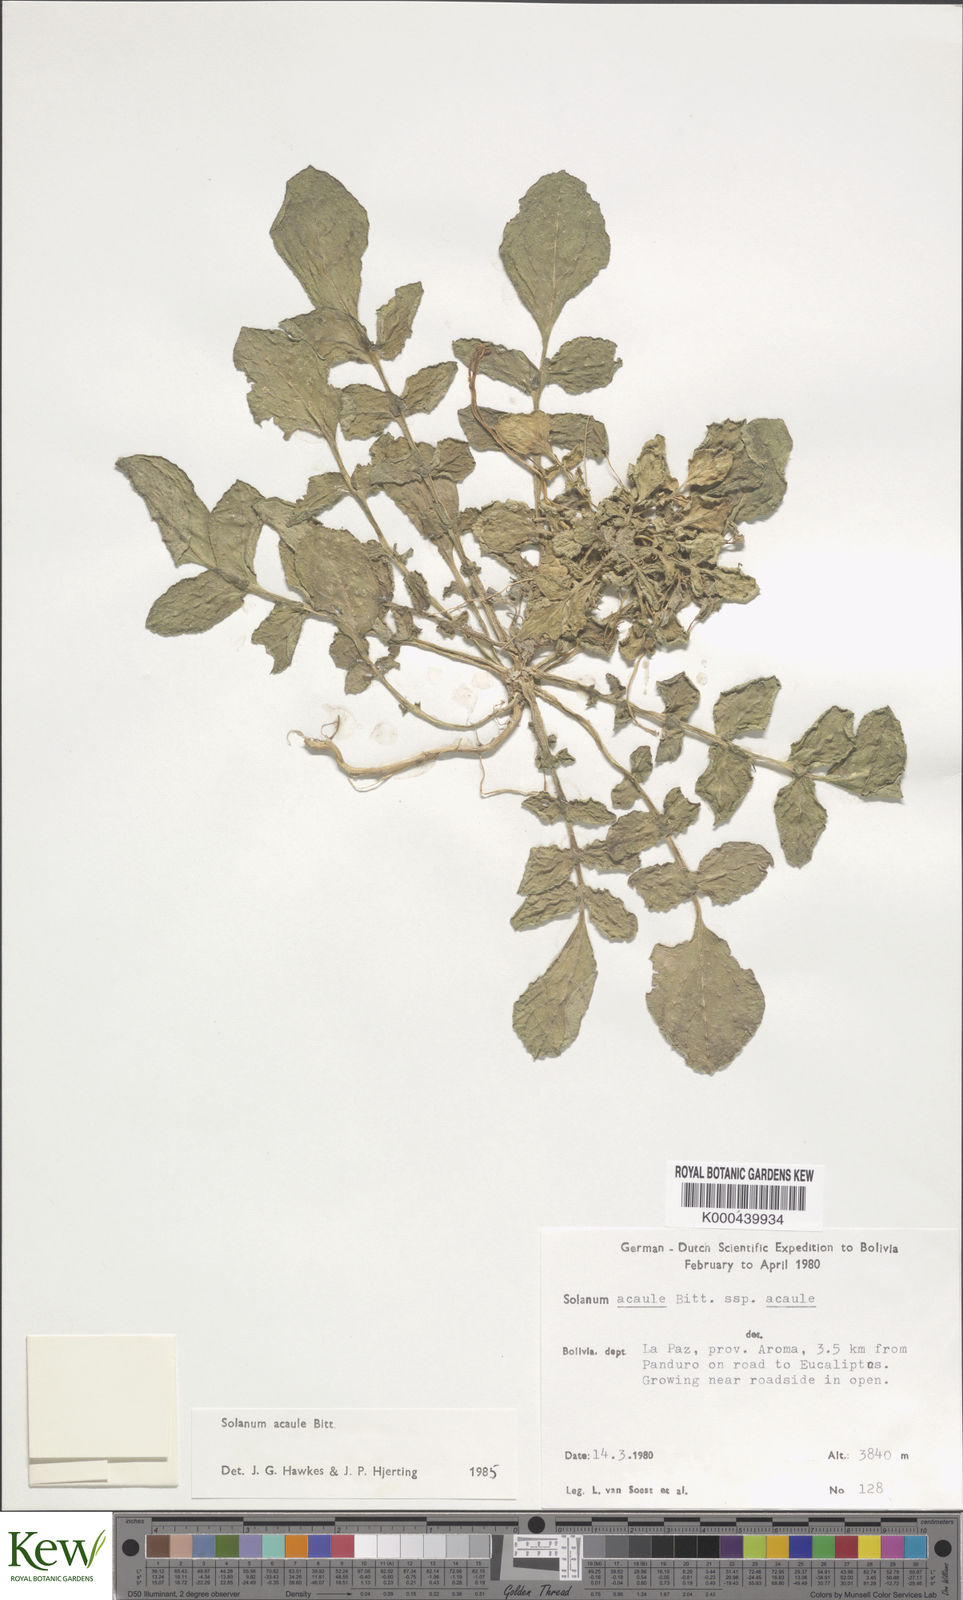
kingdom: Plantae
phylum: Tracheophyta
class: Magnoliopsida
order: Solanales
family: Solanaceae
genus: Solanum
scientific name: Solanum acaule
